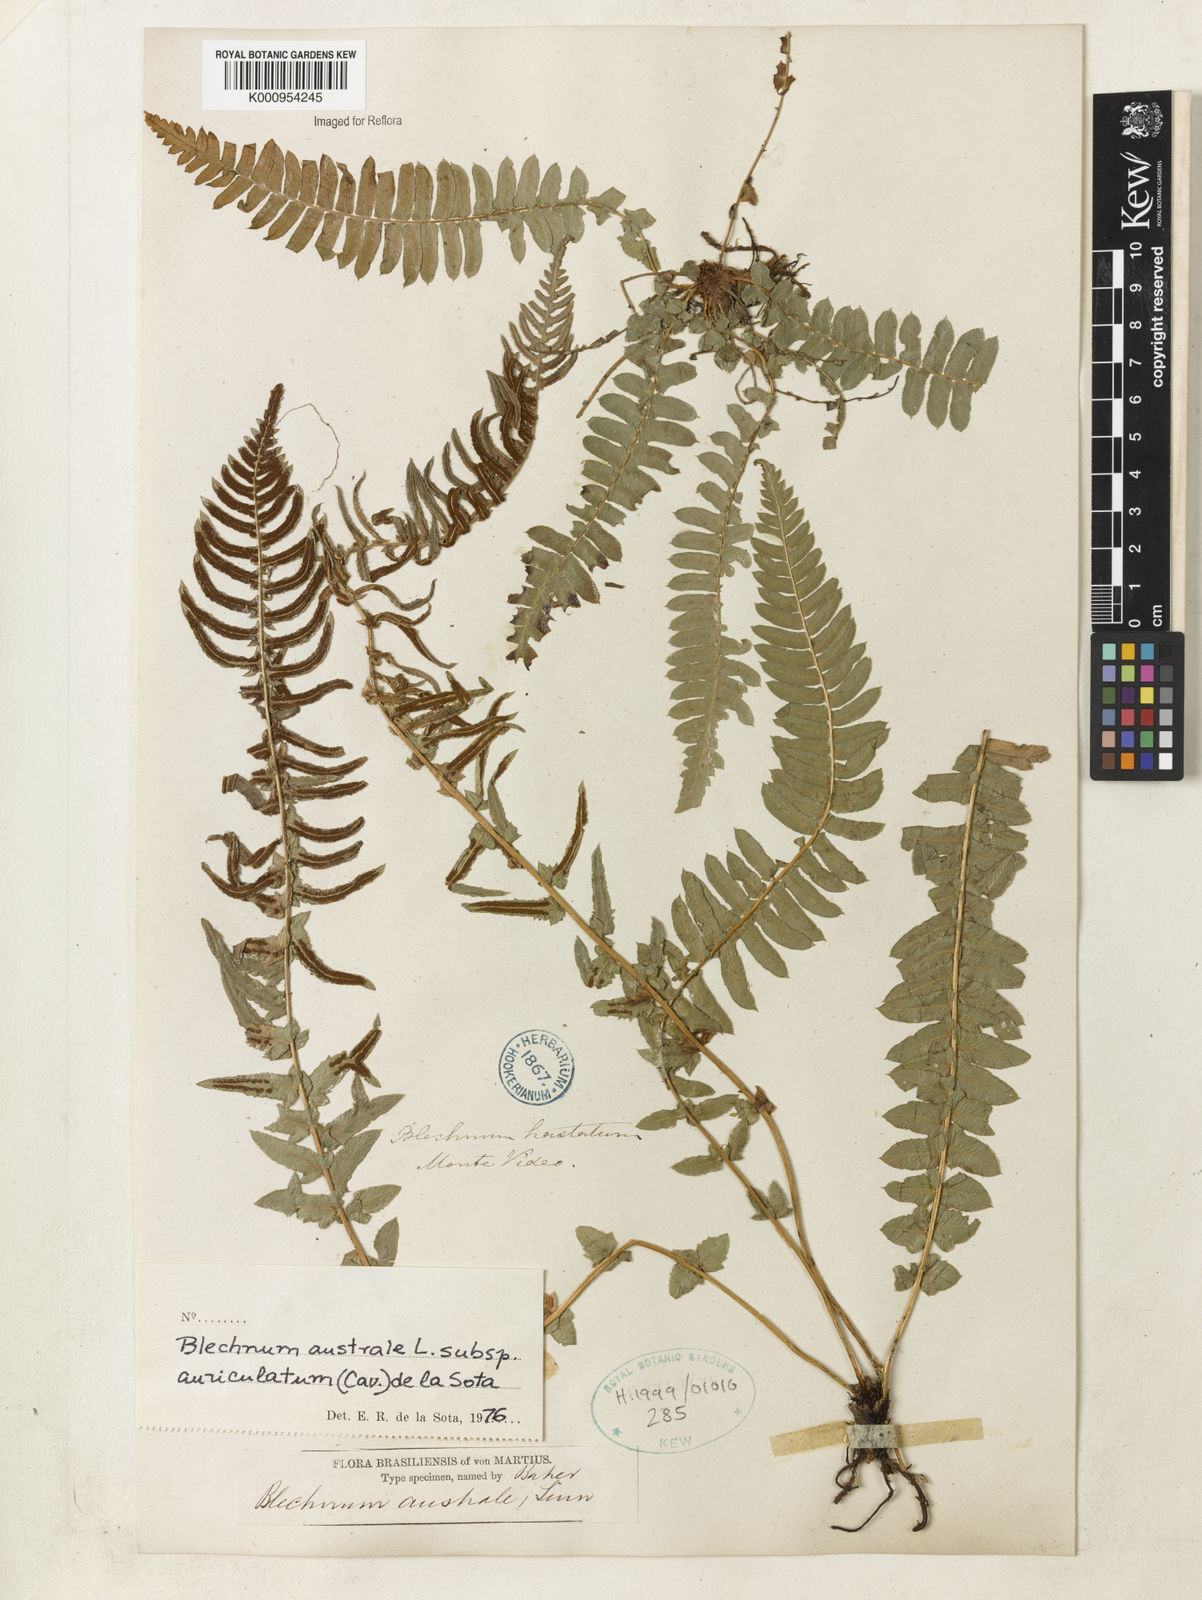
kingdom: Plantae
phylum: Tracheophyta
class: Polypodiopsida
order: Polypodiales
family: Blechnaceae
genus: Blechnum
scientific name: Blechnum australe
